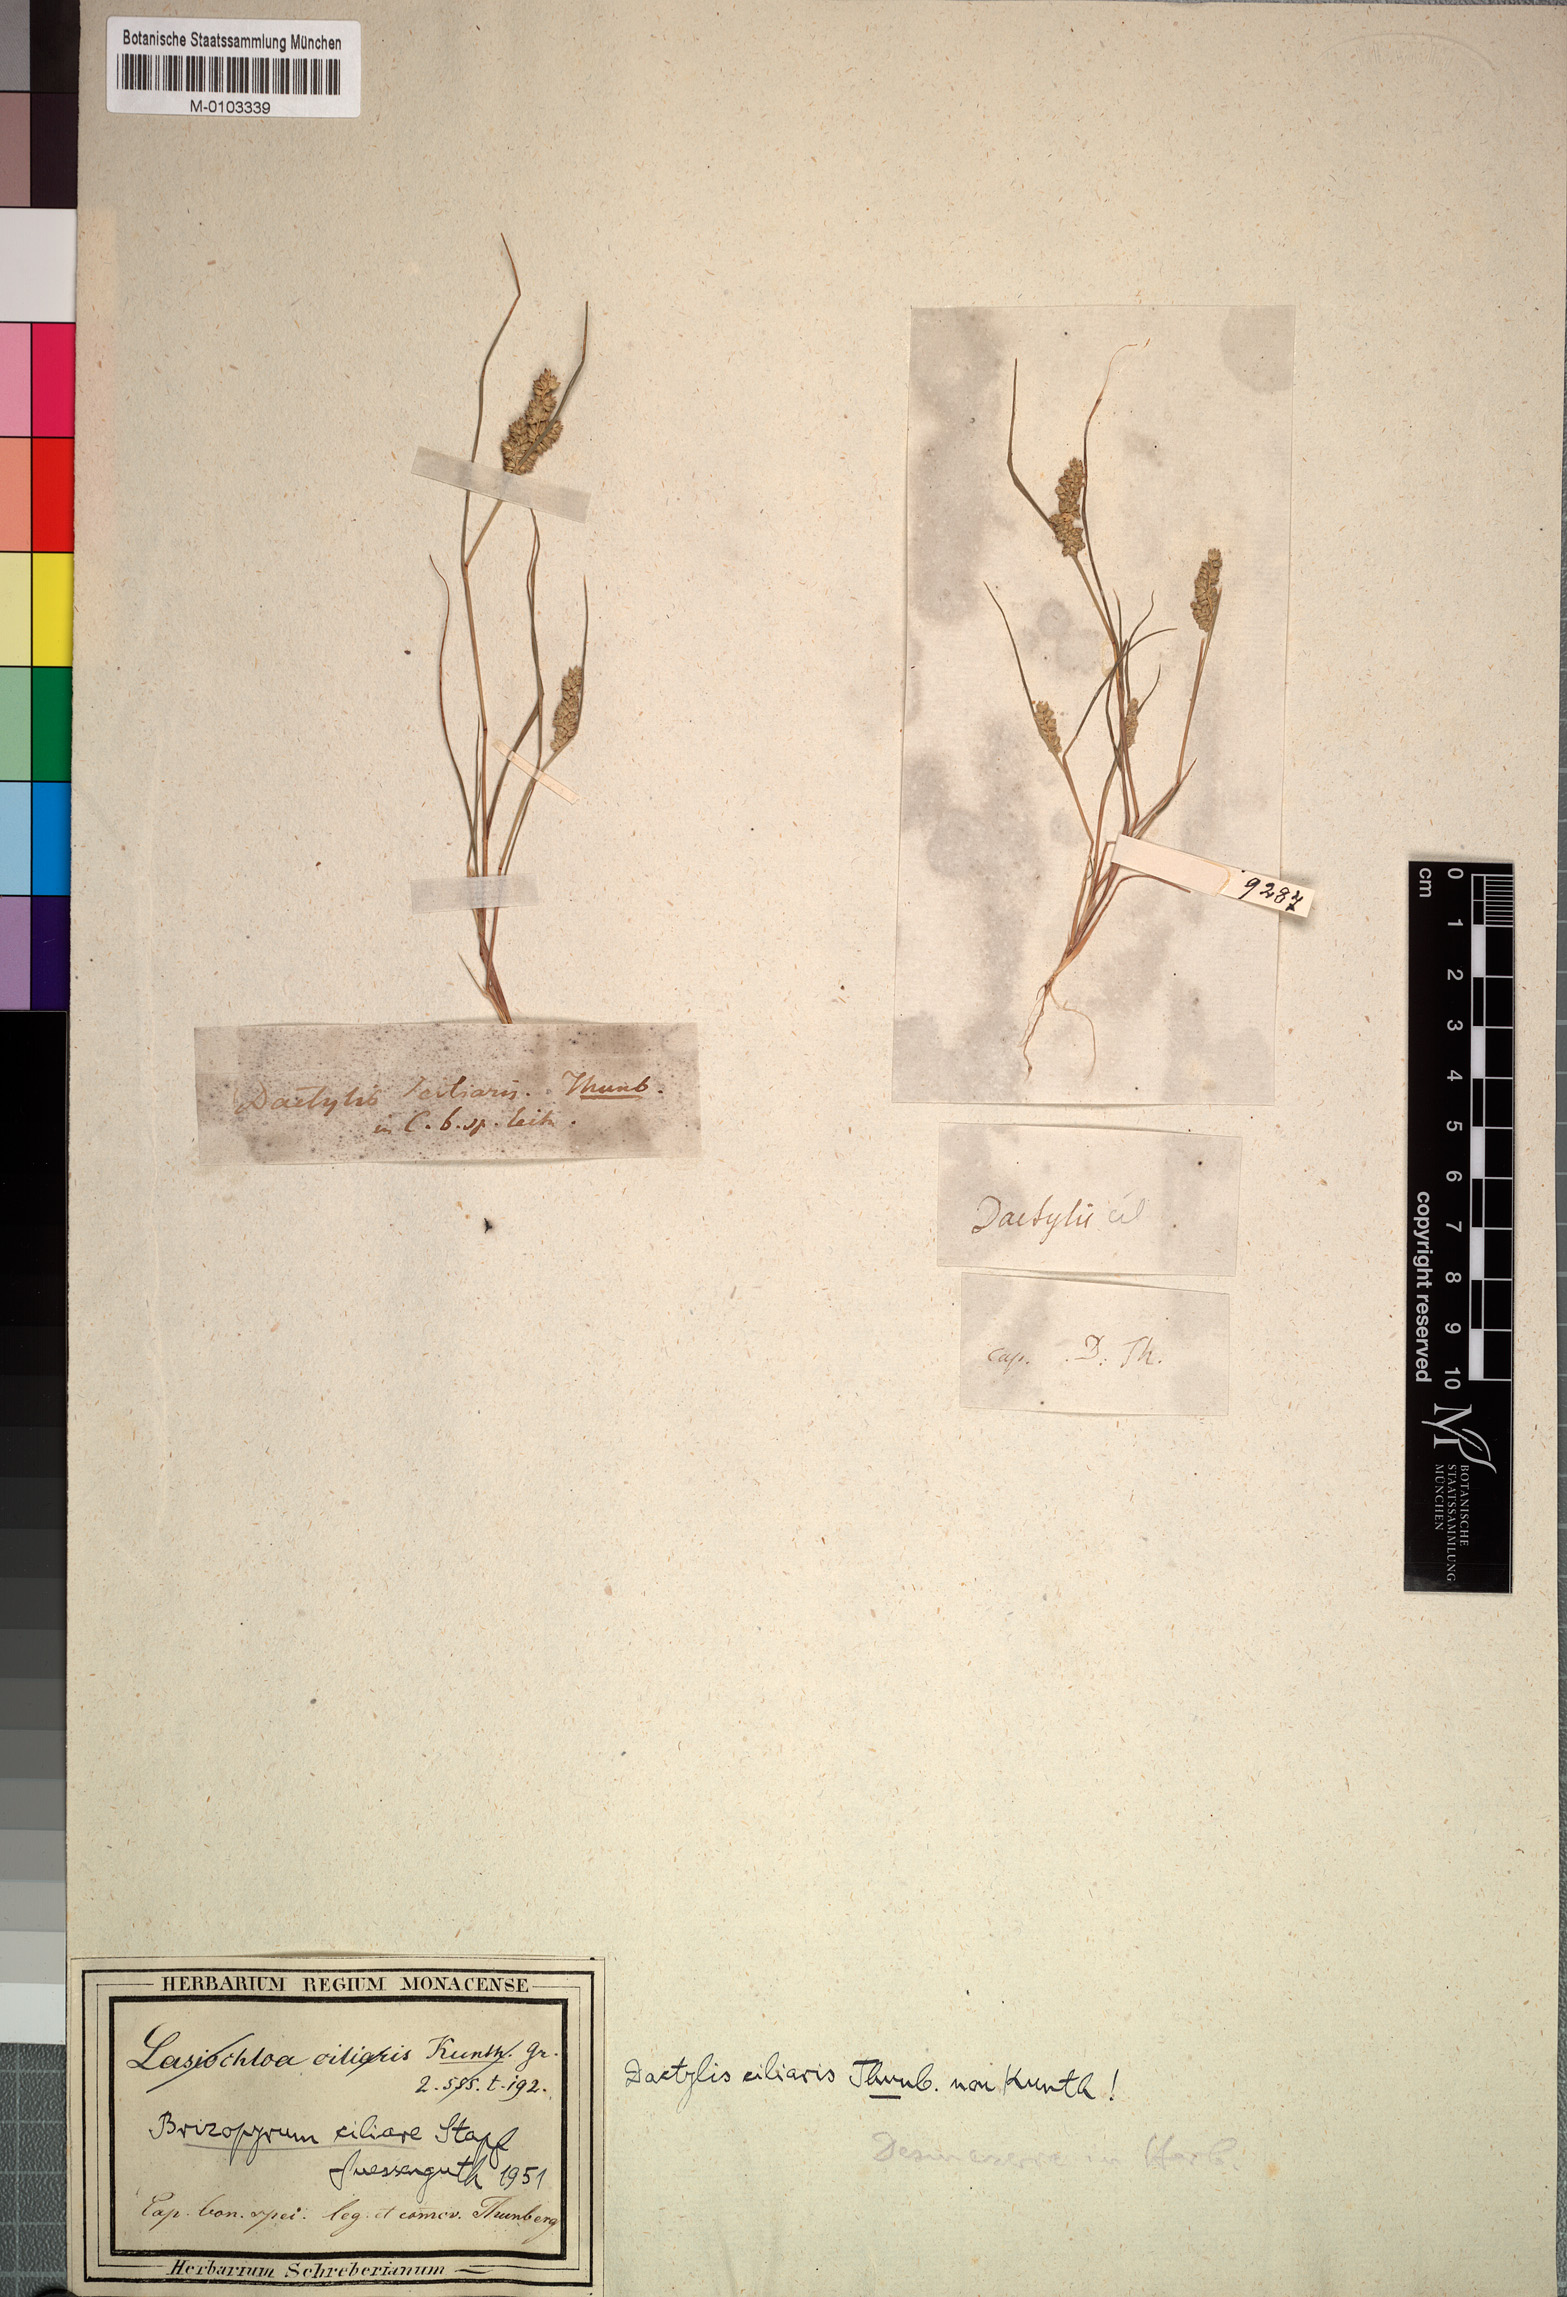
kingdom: Plantae
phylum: Tracheophyta
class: Liliopsida
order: Poales
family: Poaceae
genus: Tribolium
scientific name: Tribolium ciliare
